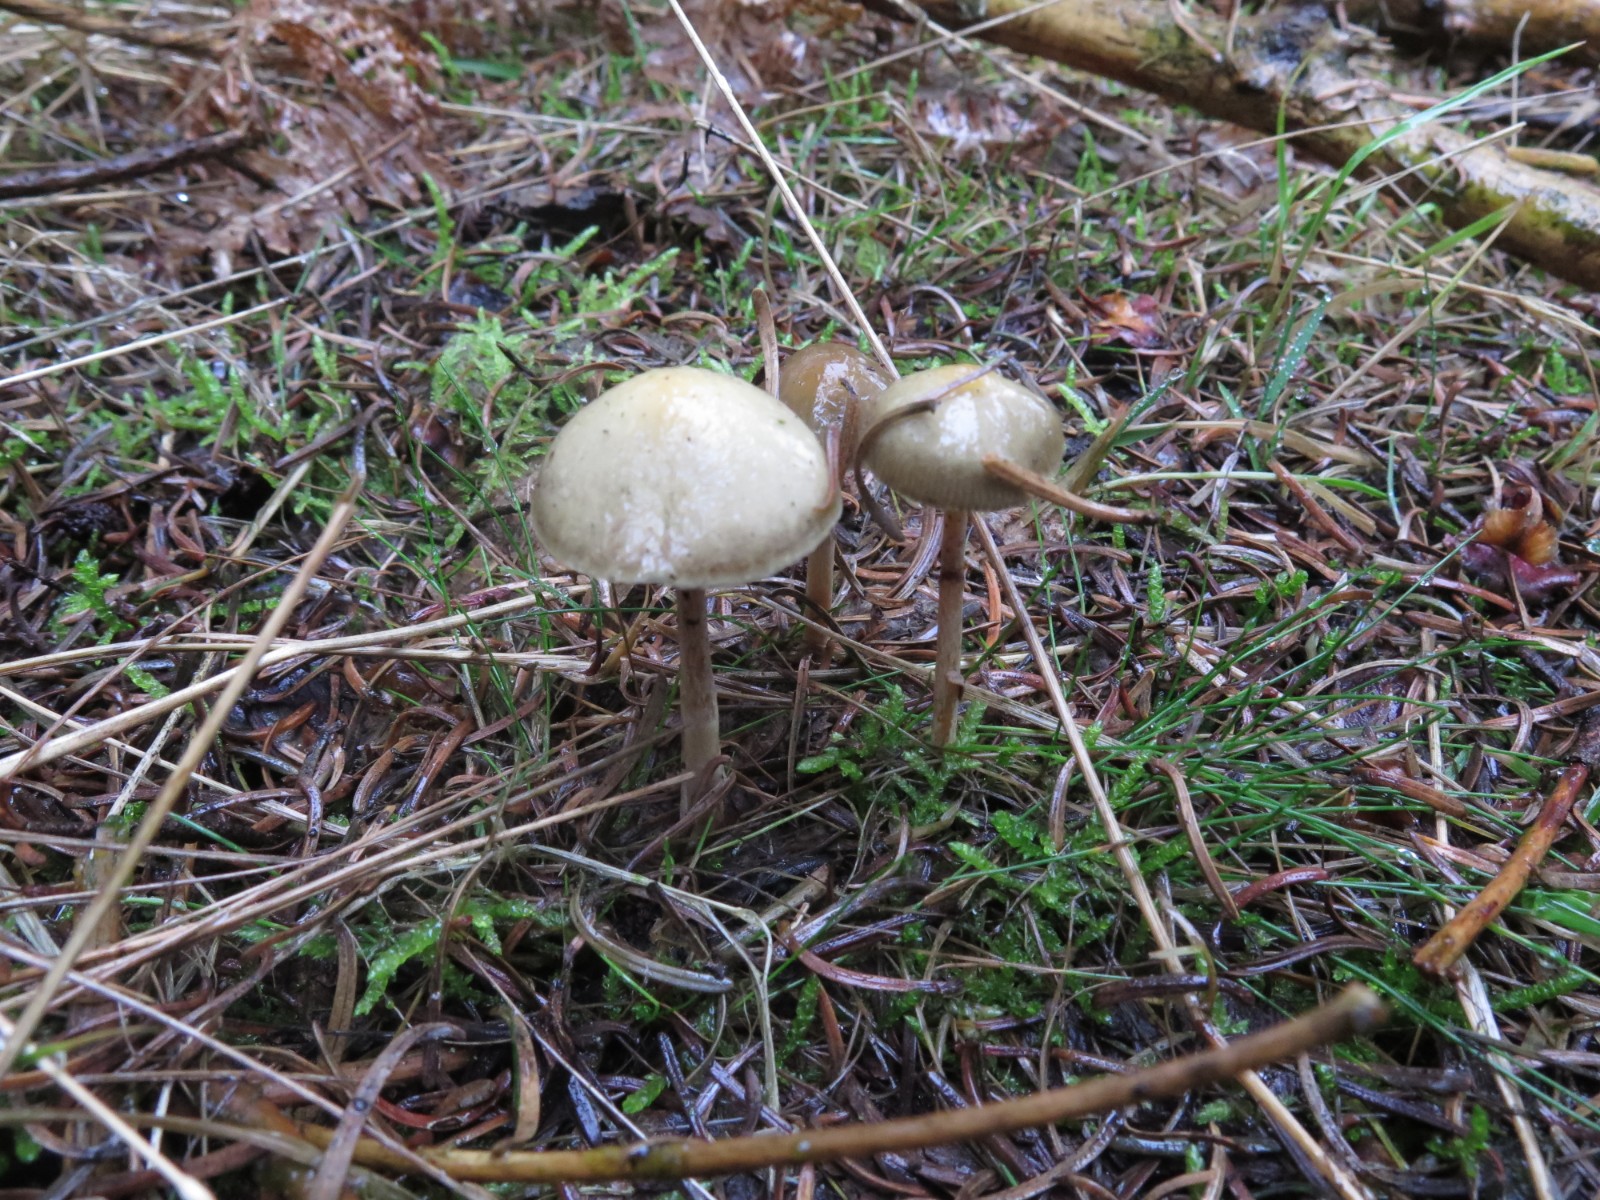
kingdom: Fungi
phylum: Basidiomycota
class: Agaricomycetes
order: Agaricales
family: Strophariaceae
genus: Protostropharia
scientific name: Protostropharia
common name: bredblad
